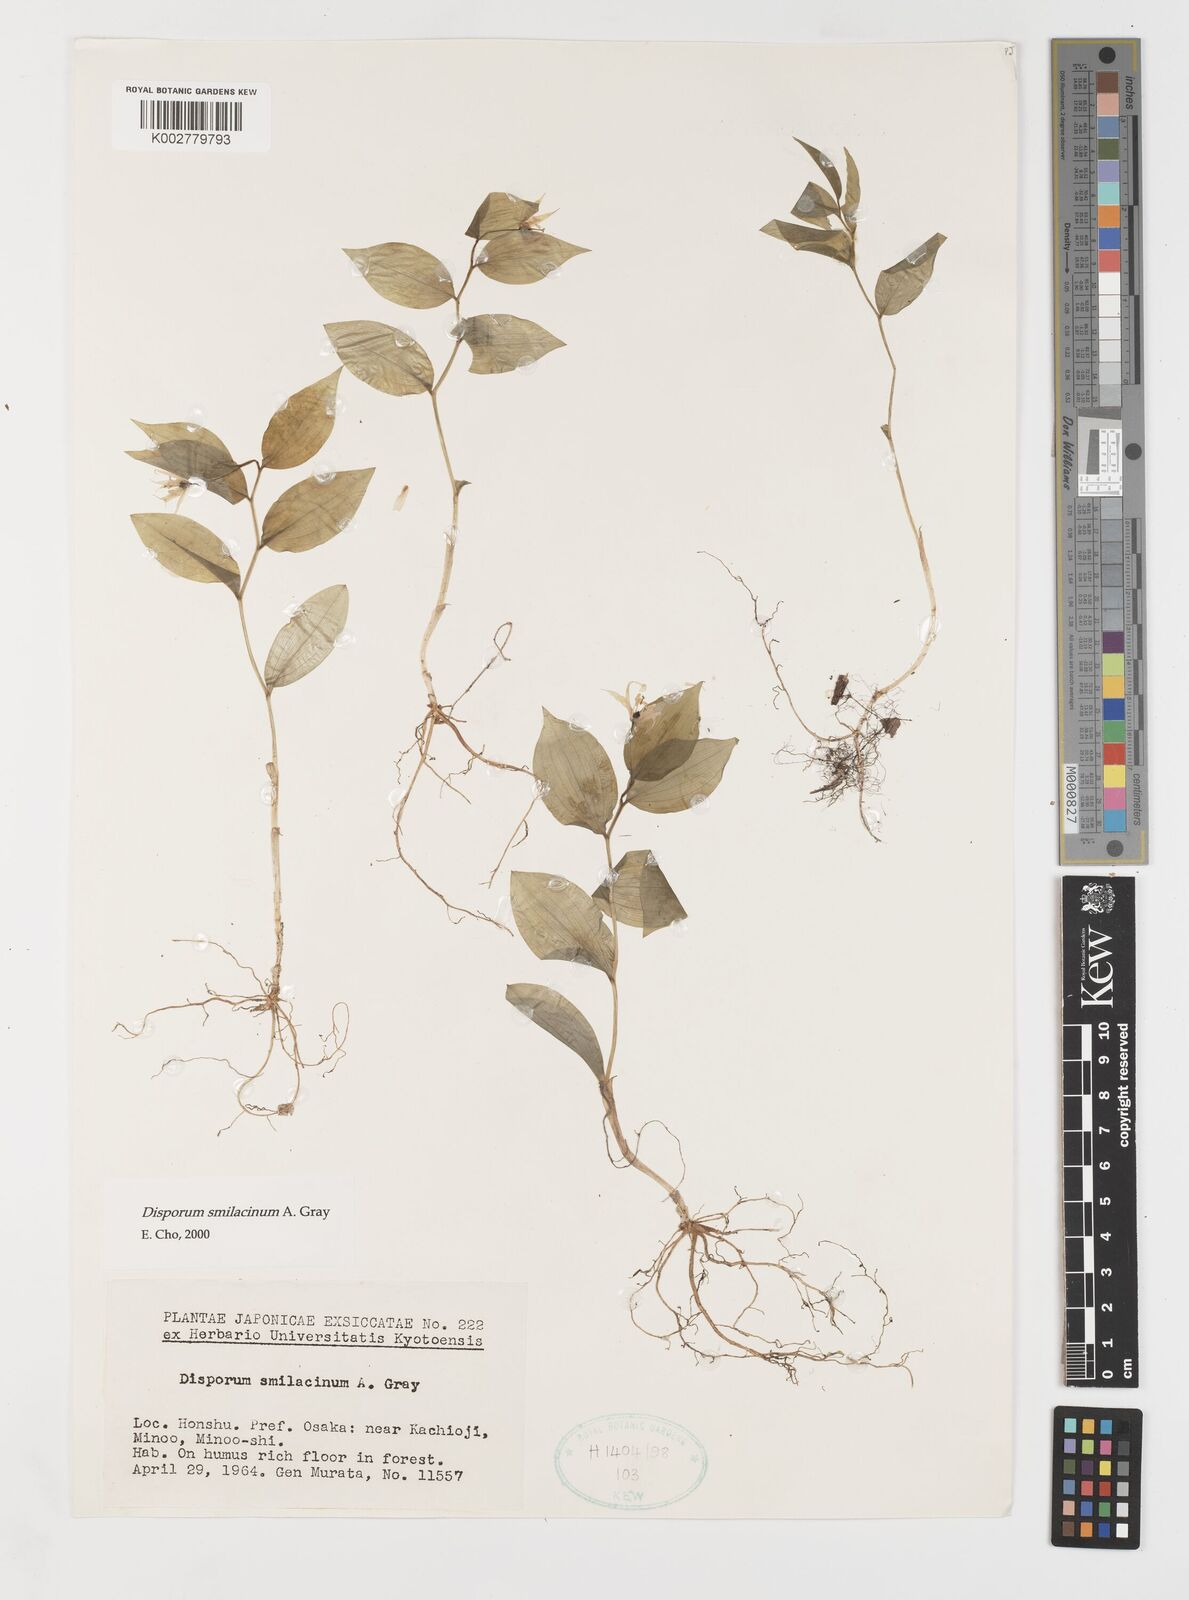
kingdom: Plantae
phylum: Tracheophyta
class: Liliopsida
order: Liliales
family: Colchicaceae
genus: Disporum
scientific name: Disporum smilacinum
